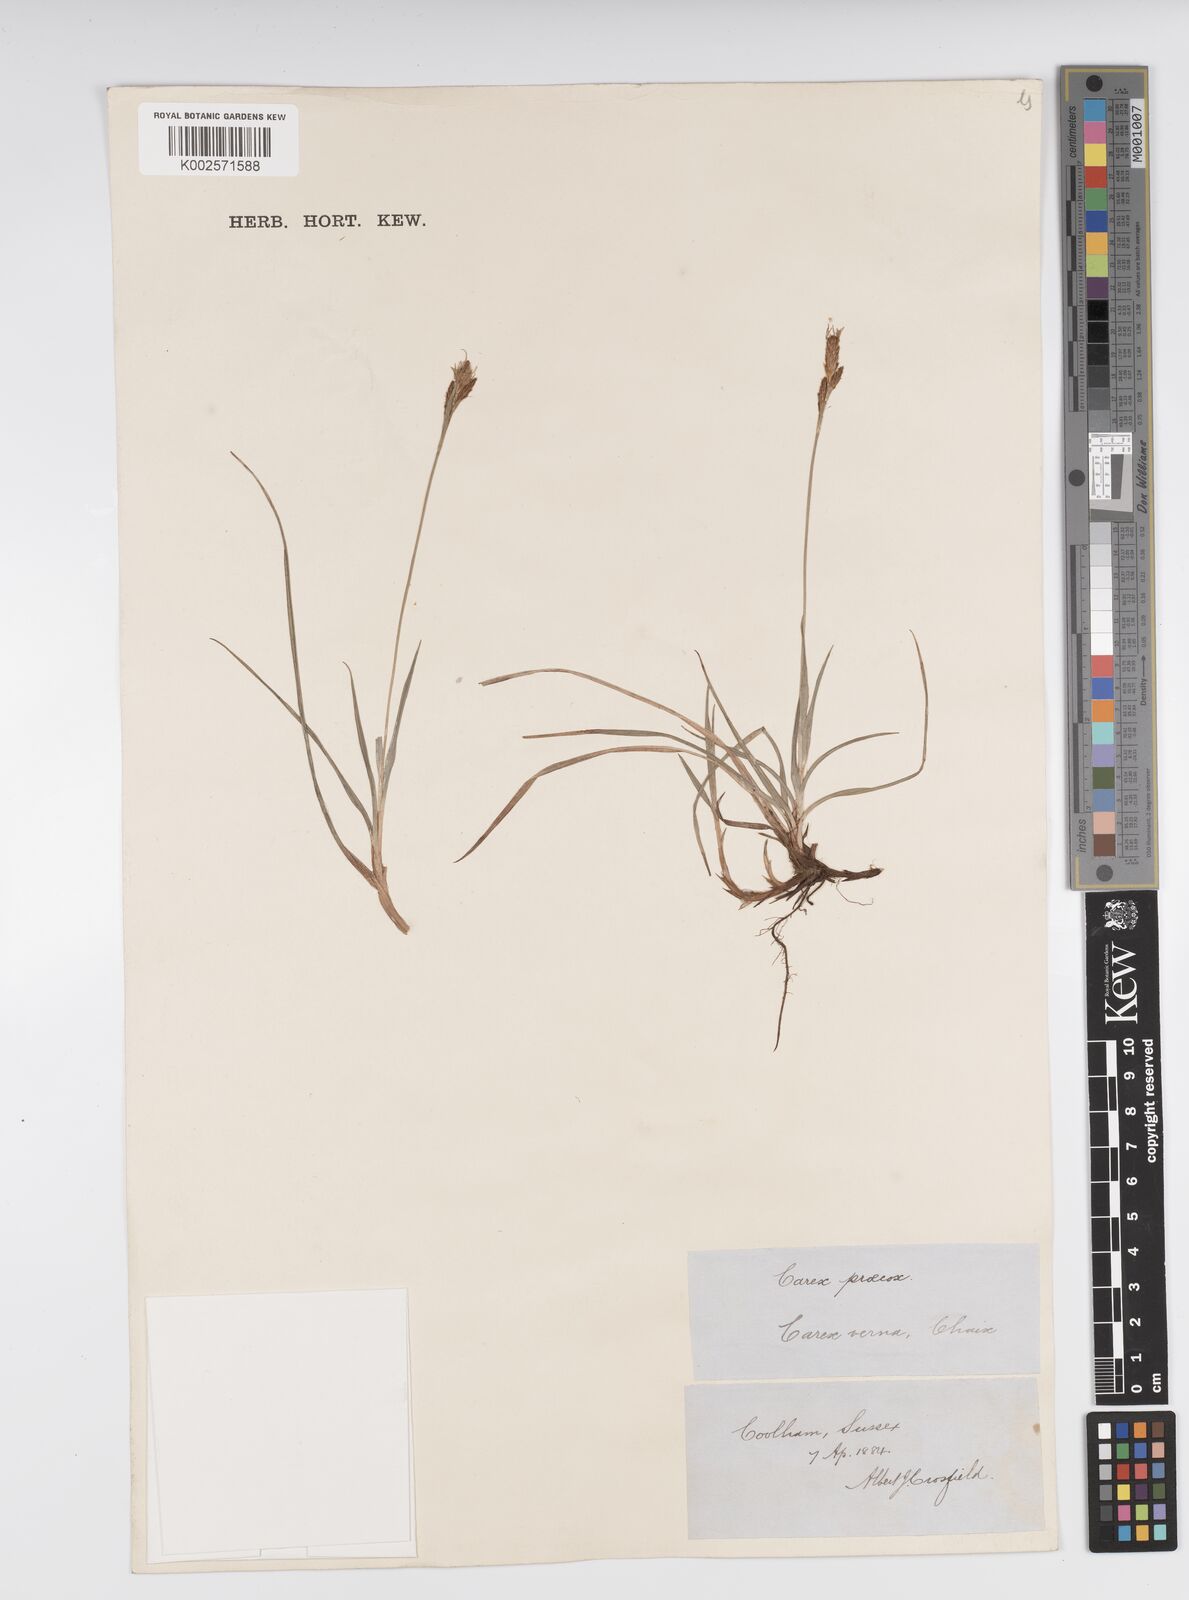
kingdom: Plantae
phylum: Tracheophyta
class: Liliopsida
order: Poales
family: Cyperaceae
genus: Carex
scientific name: Carex caryophyllea
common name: Spring sedge
